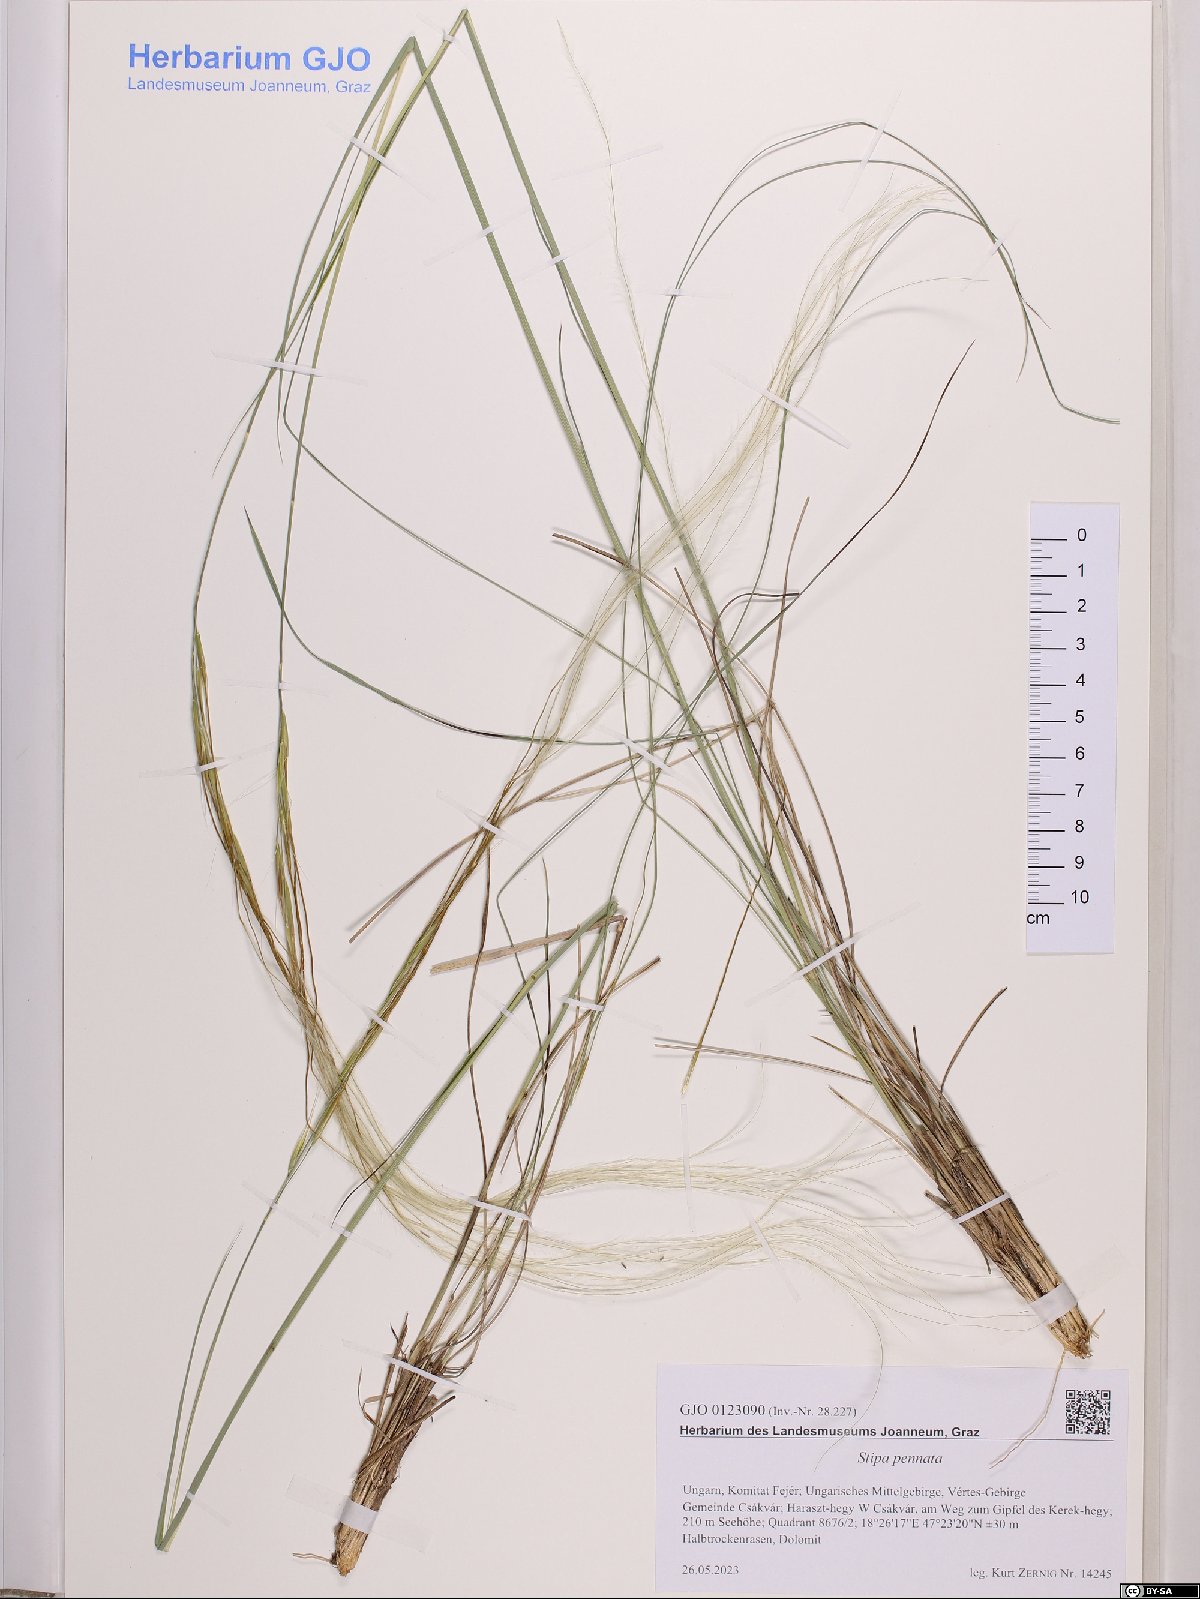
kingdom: Plantae
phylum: Tracheophyta
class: Liliopsida
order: Poales
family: Poaceae
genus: Stipa
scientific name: Stipa pennata
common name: European feather grass
